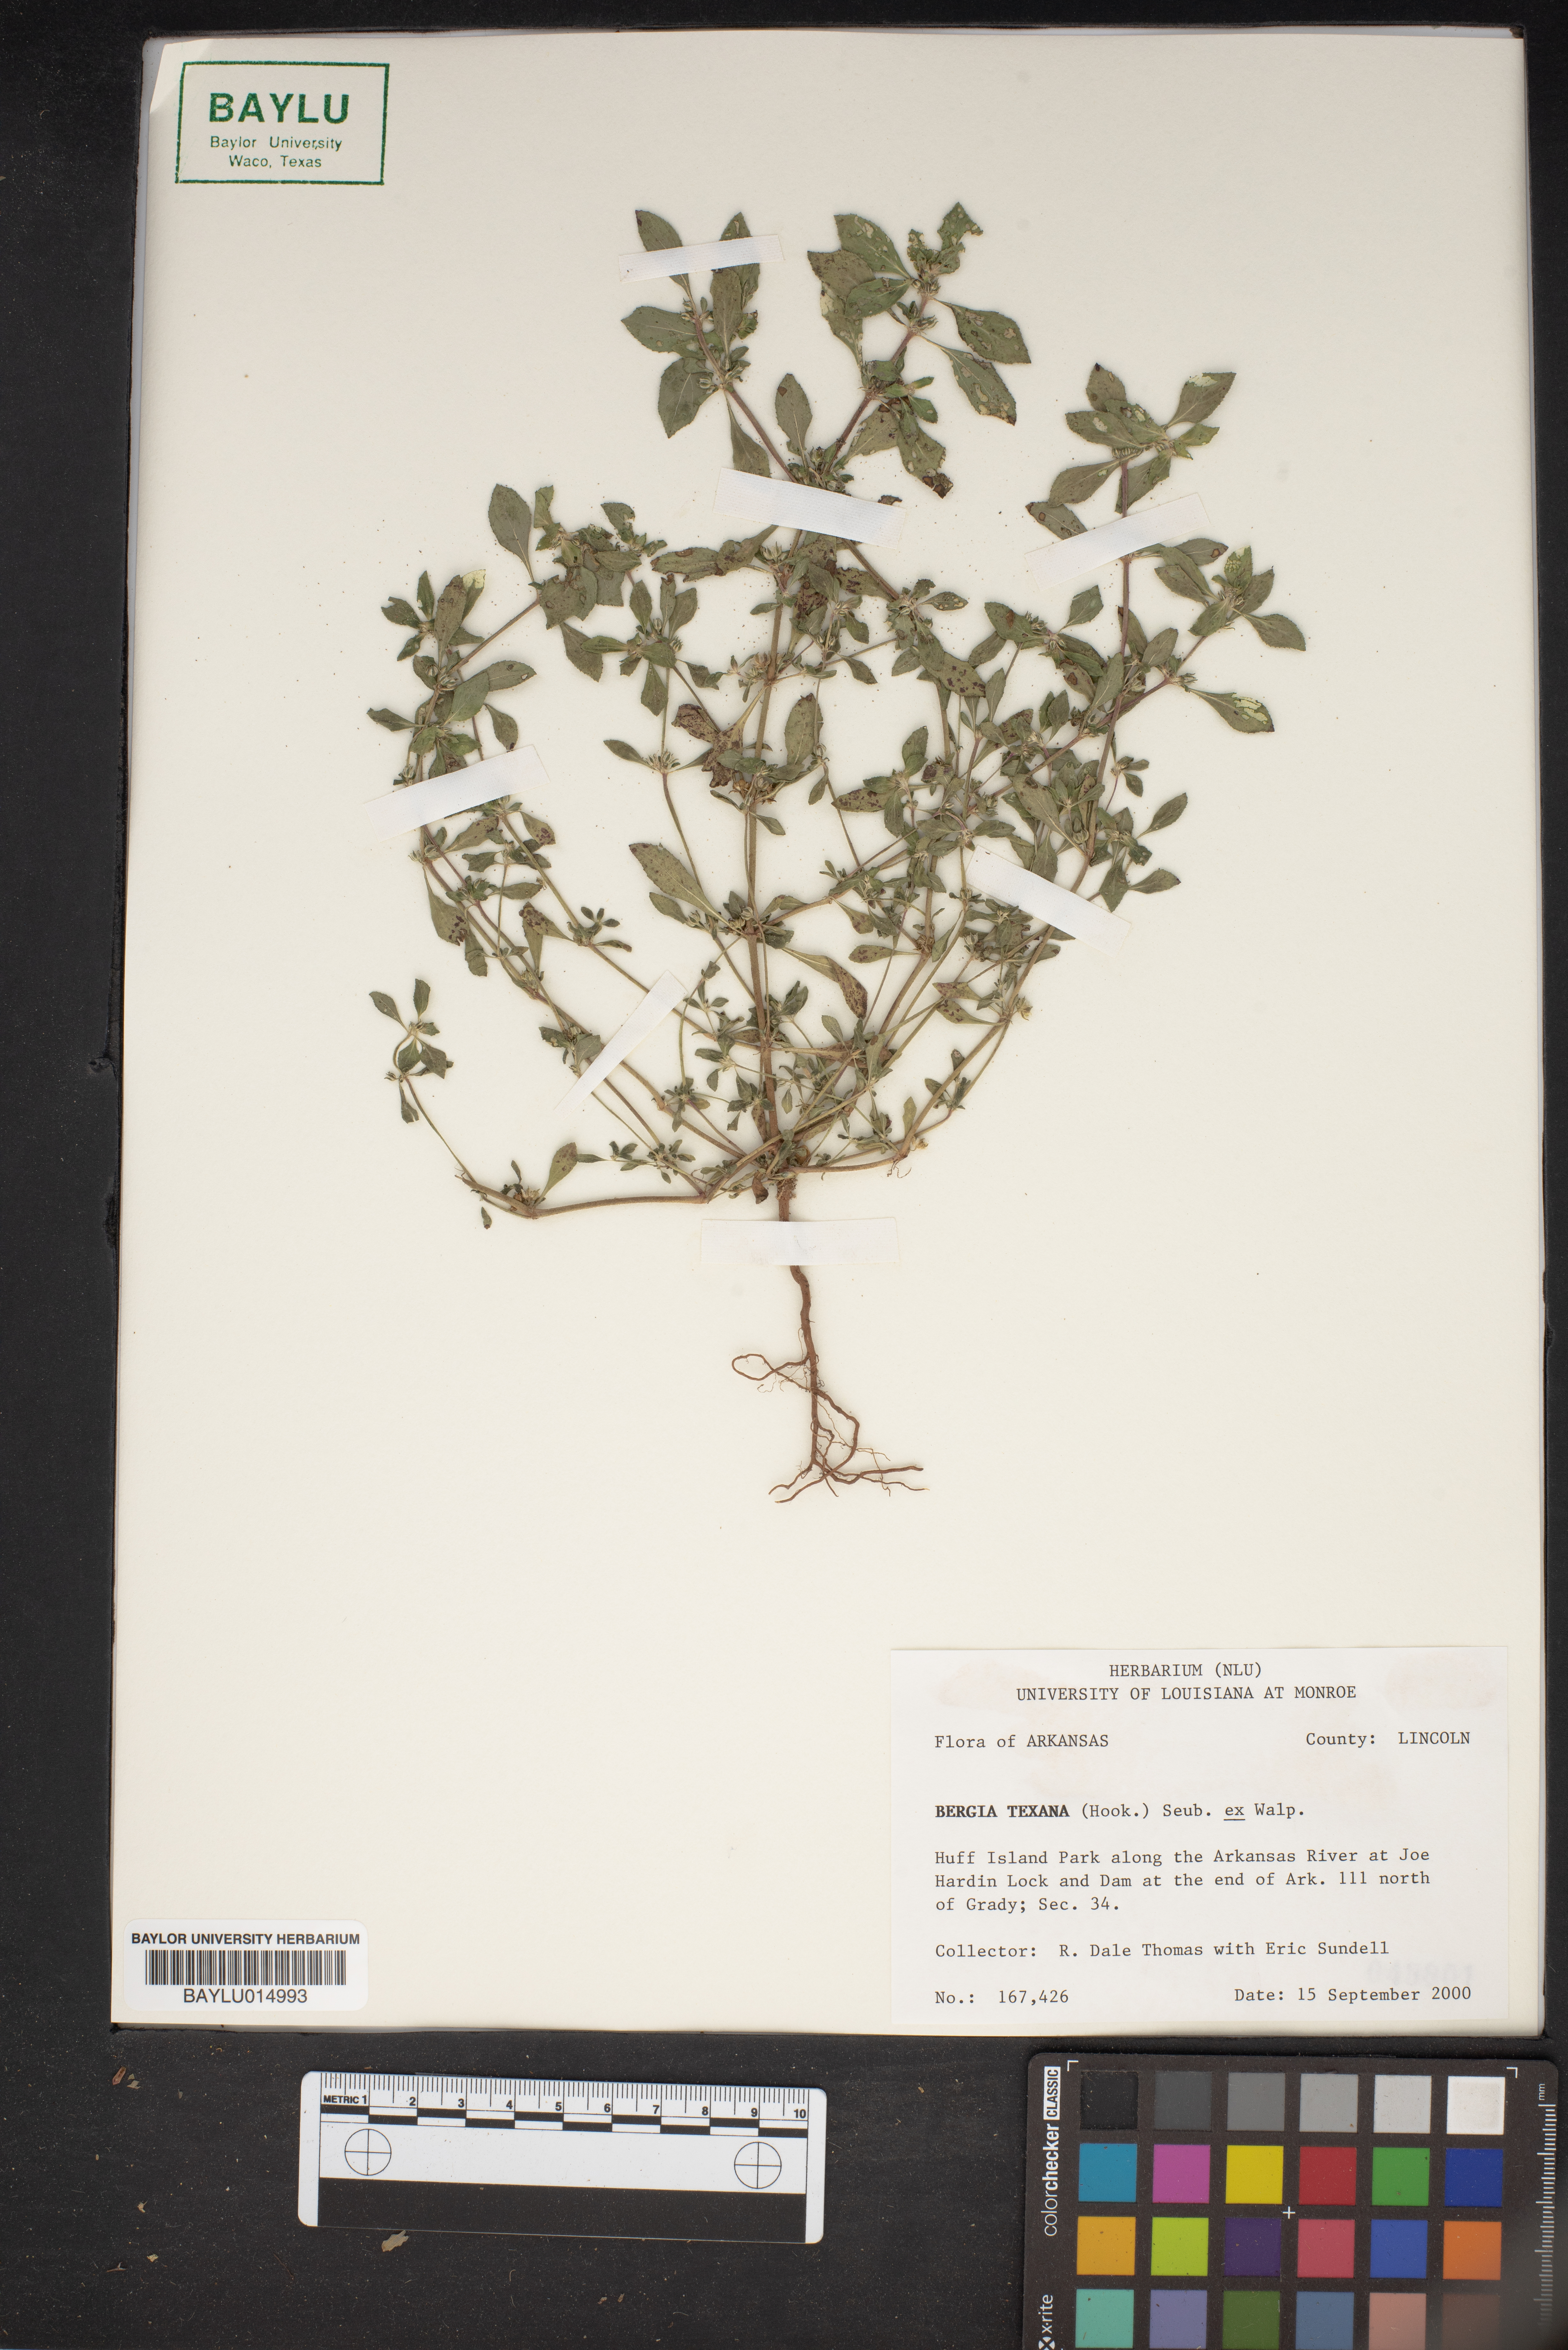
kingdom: Plantae
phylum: Tracheophyta
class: Magnoliopsida
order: Malpighiales
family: Elatinaceae
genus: Bergia
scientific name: Bergia texana
